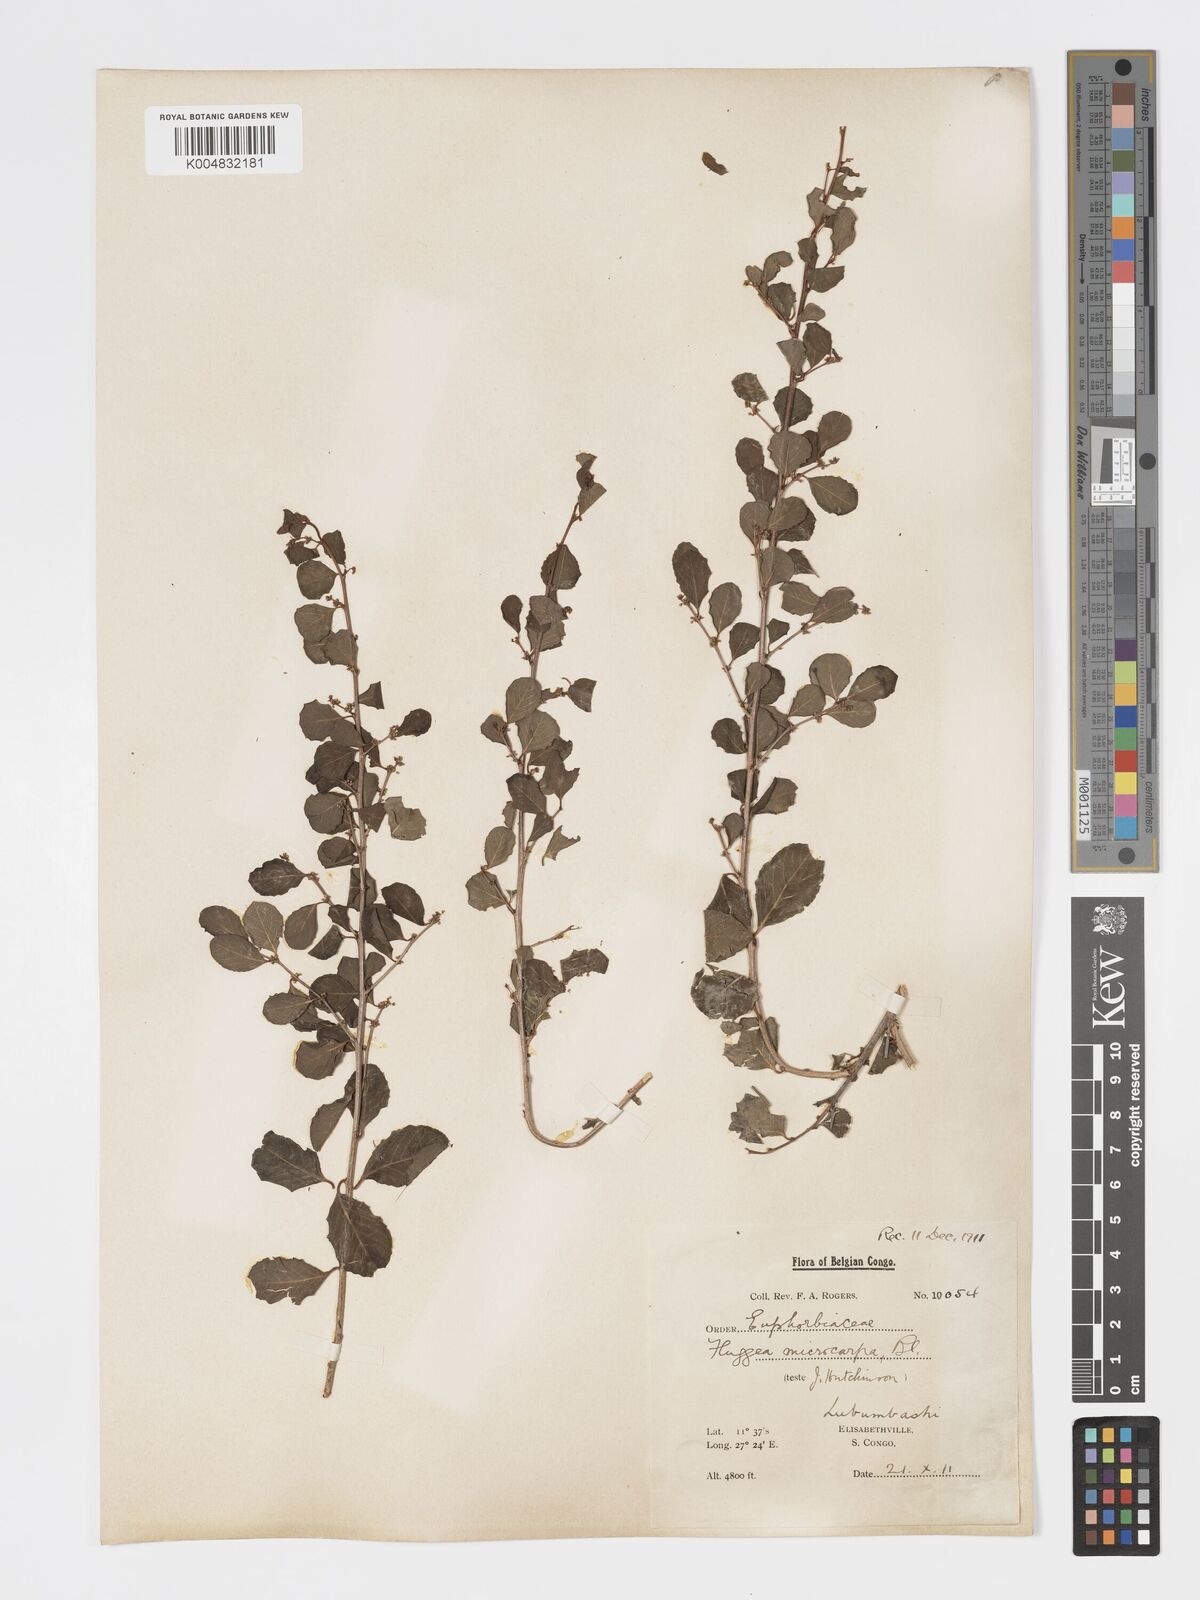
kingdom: Plantae
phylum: Tracheophyta
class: Magnoliopsida
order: Malpighiales
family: Phyllanthaceae
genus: Flueggea
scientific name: Flueggea virosa
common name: Common bushweed
